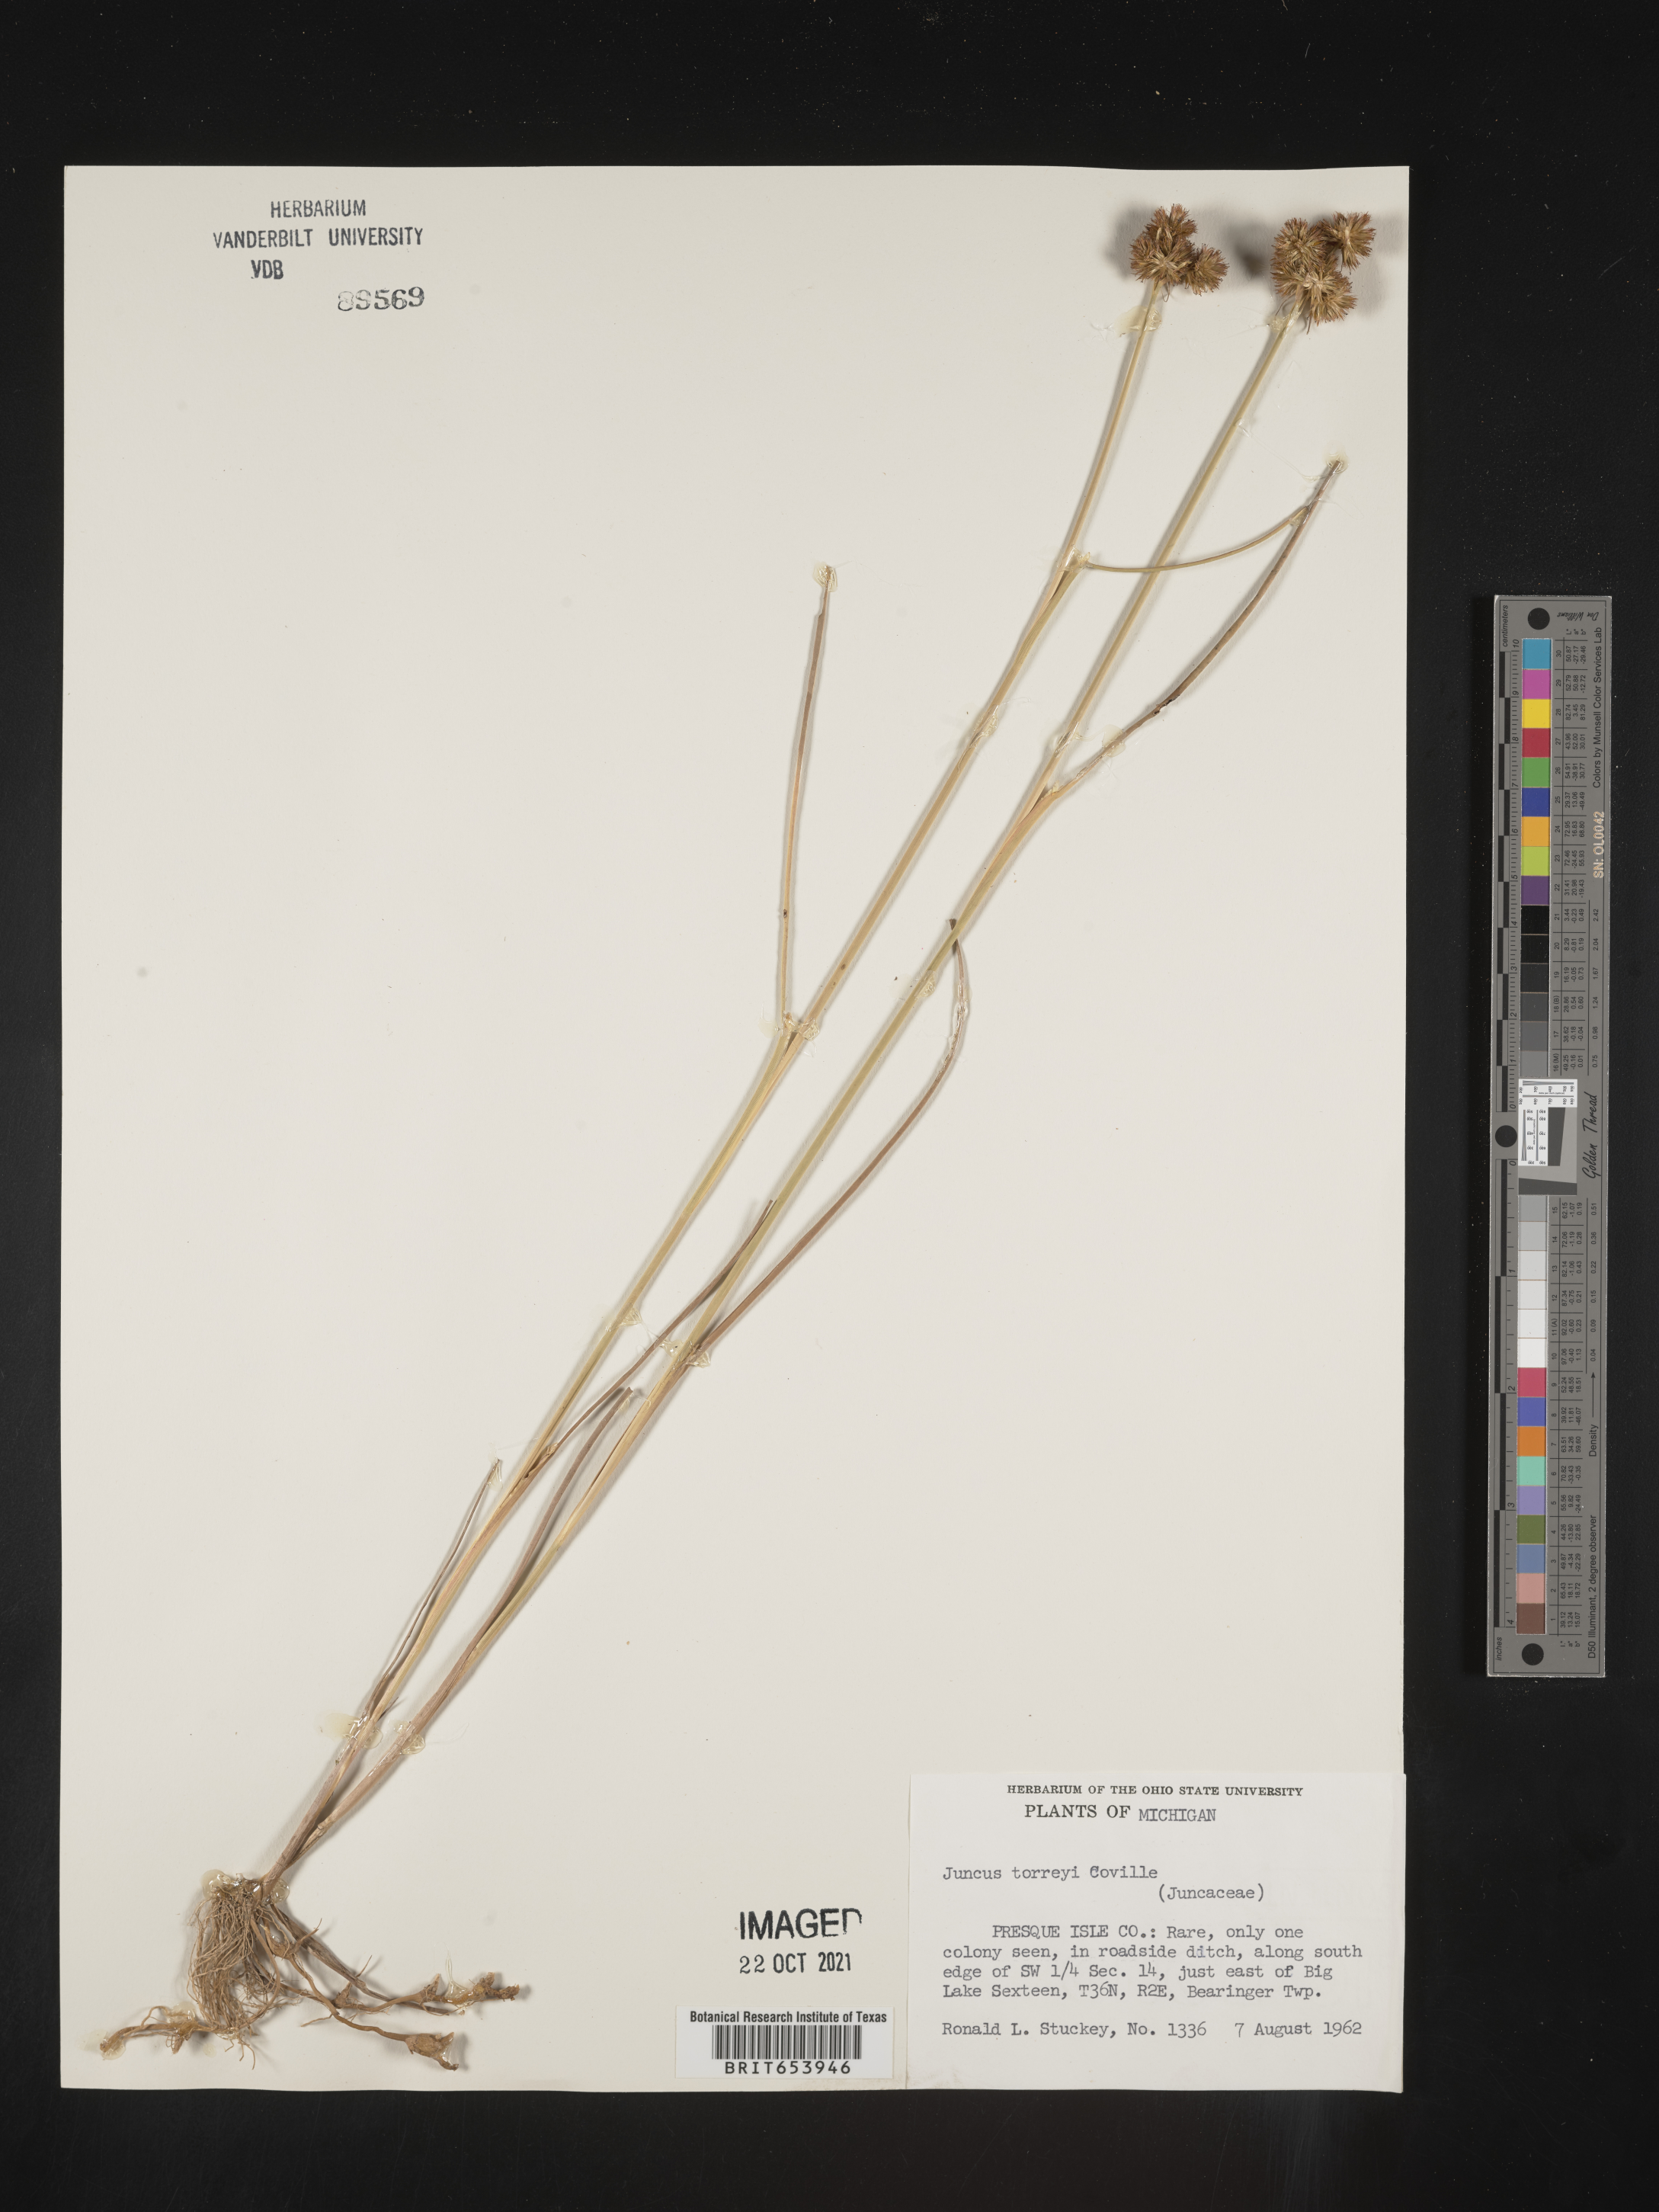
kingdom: Plantae
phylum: Tracheophyta
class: Liliopsida
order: Poales
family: Juncaceae
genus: Juncus
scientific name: Juncus torreyi
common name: Torrey's rush
